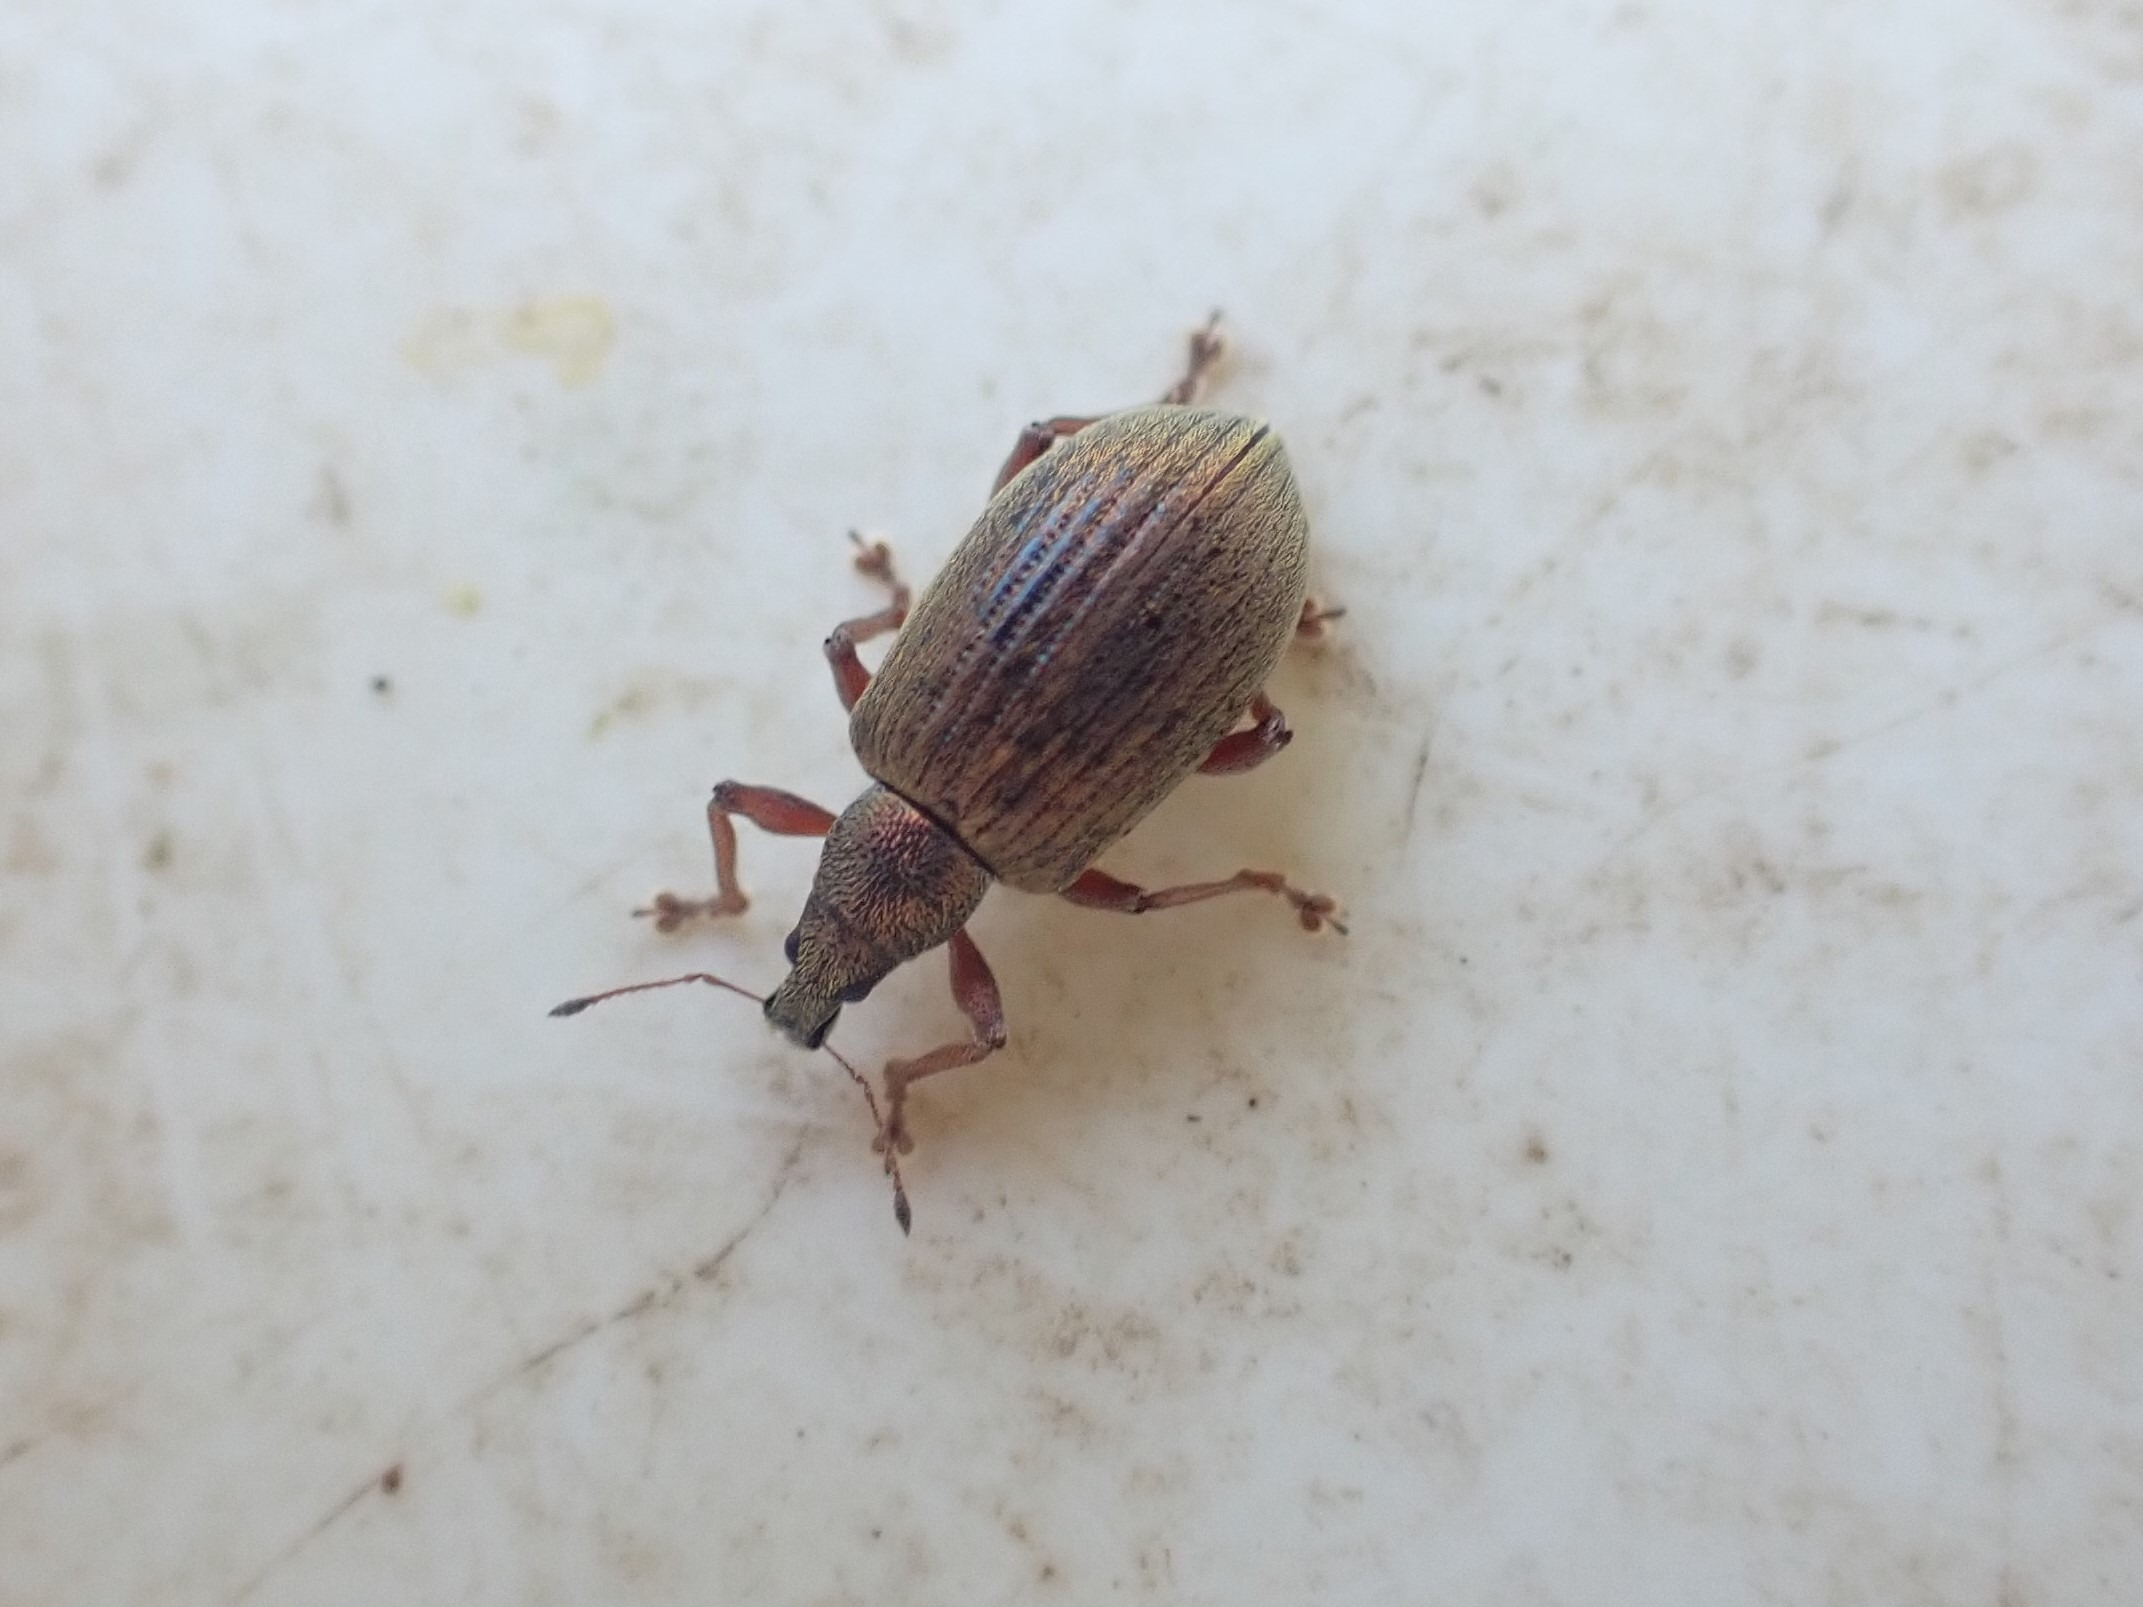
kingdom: Animalia
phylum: Arthropoda
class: Insecta
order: Coleoptera
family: Curculionidae
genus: Polydrusus
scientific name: Polydrusus mollis
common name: Blodsnudebille
